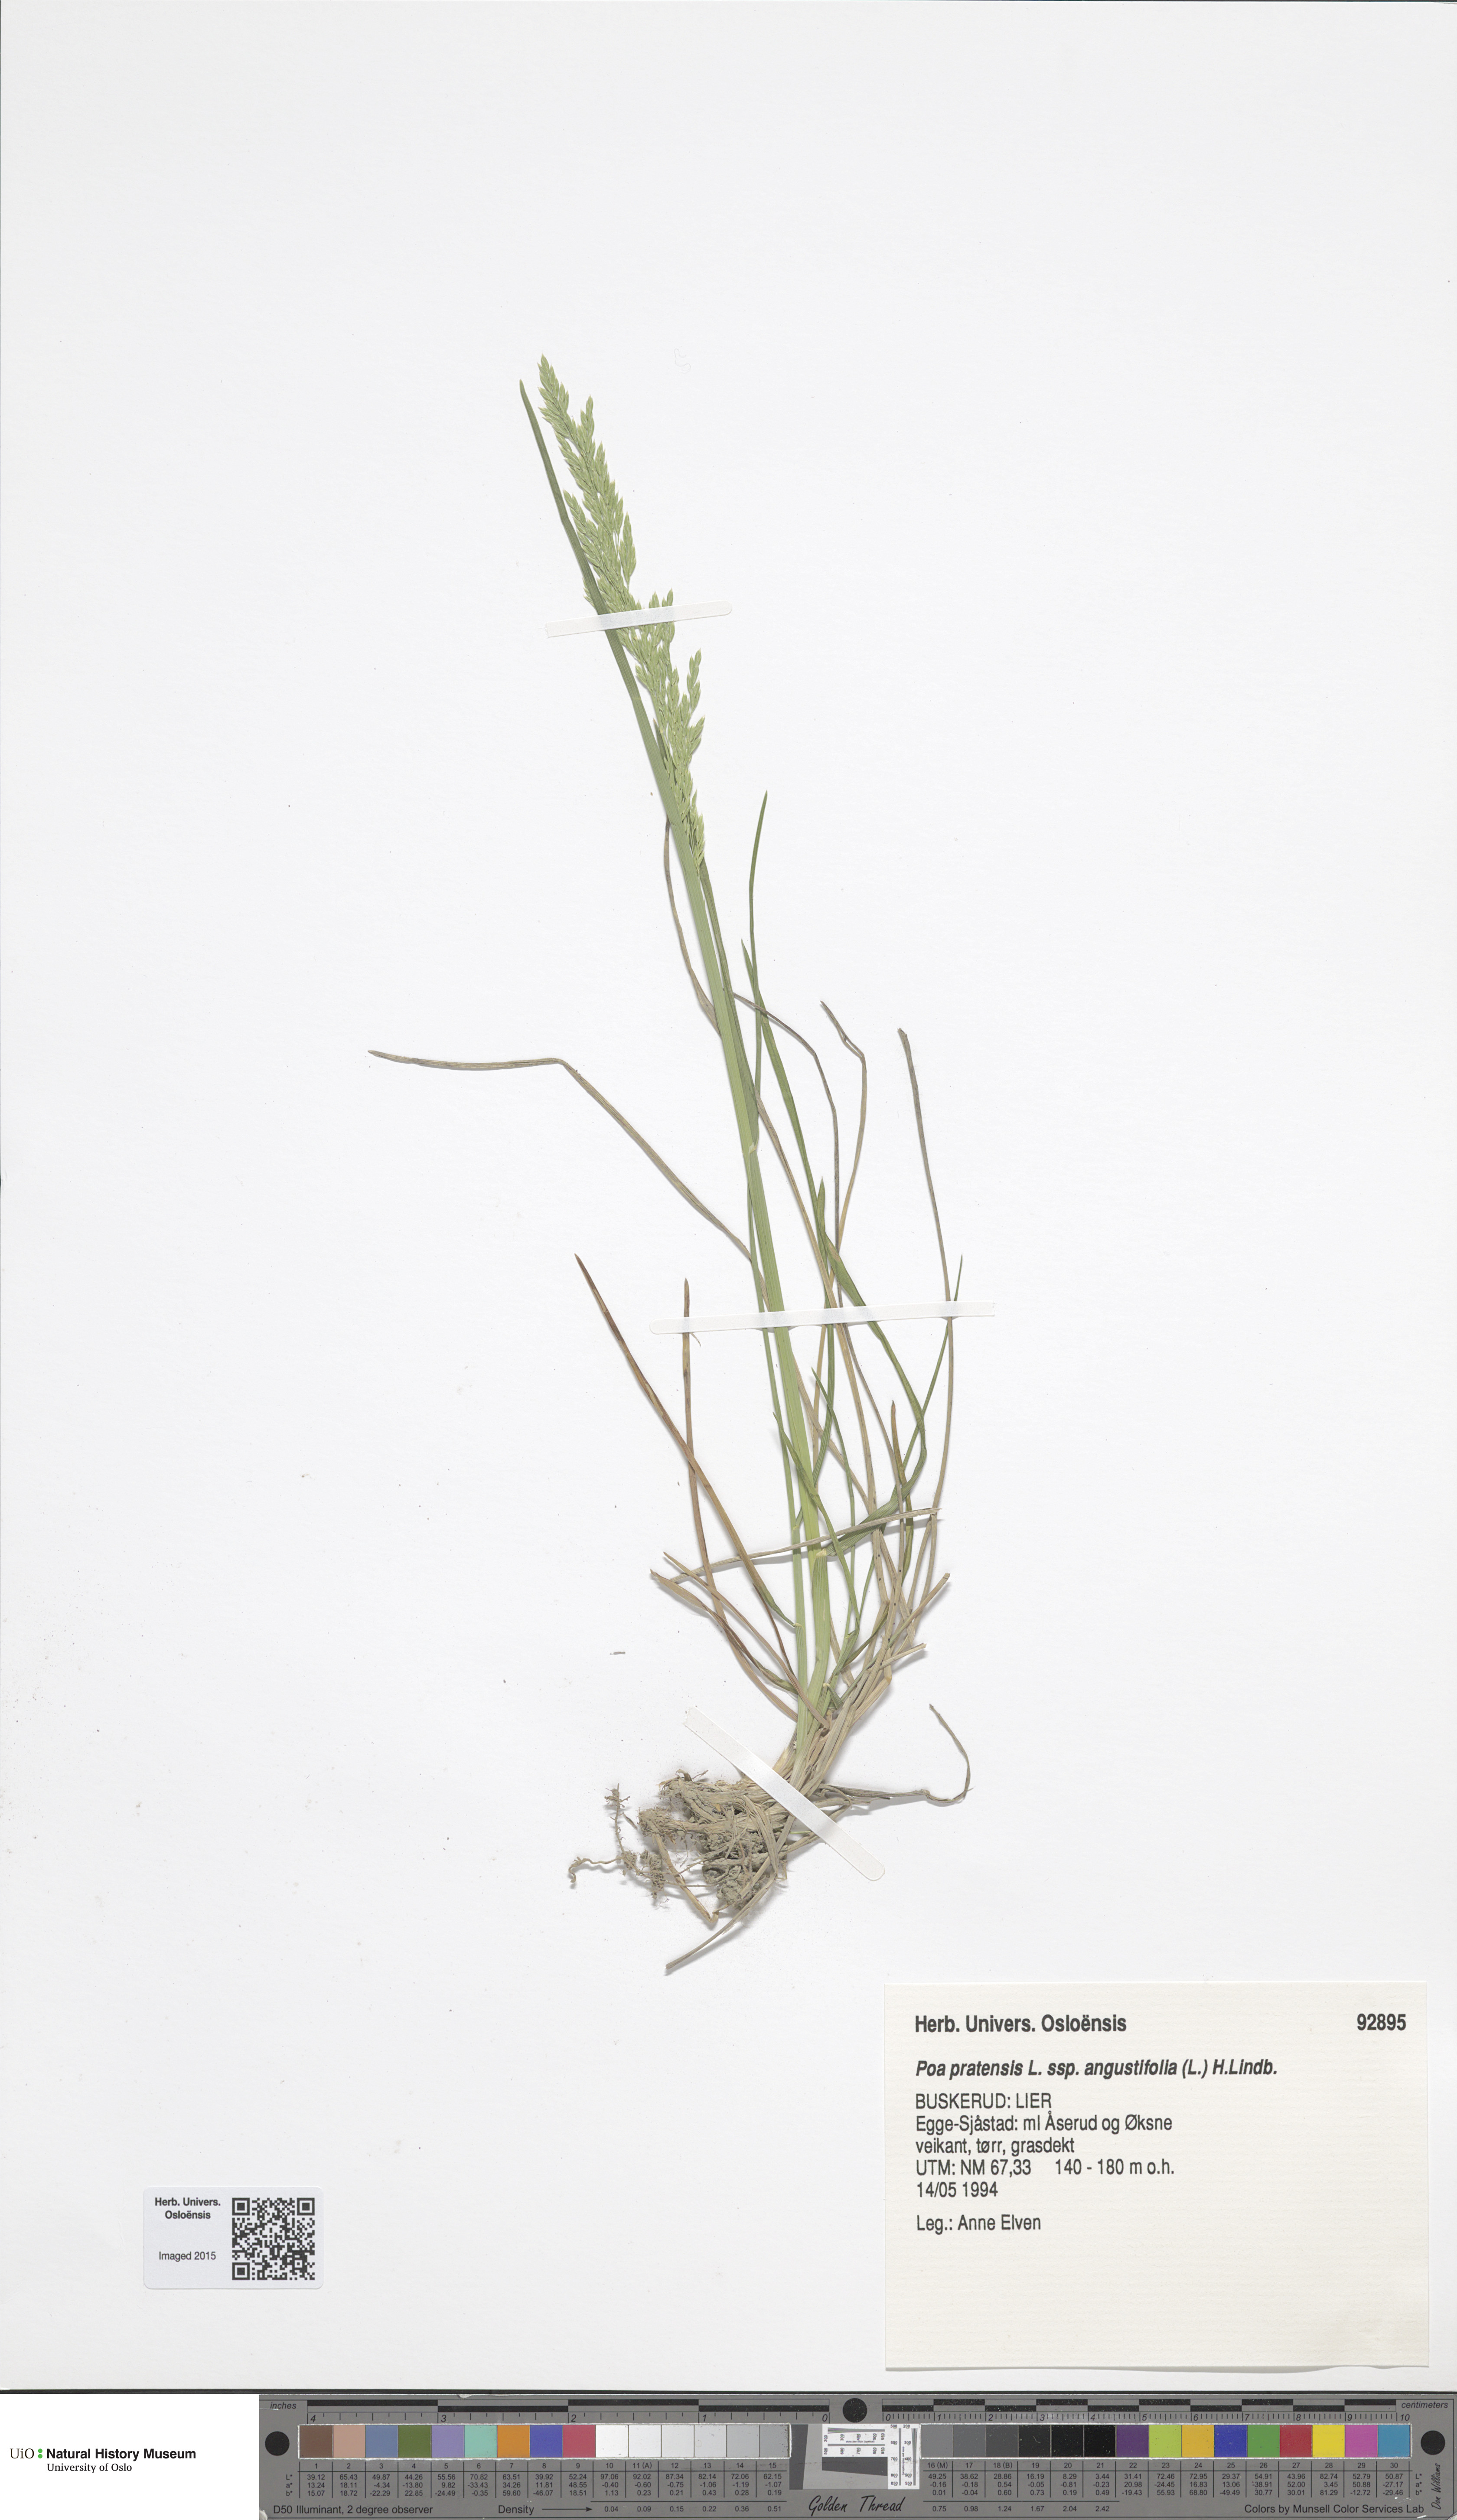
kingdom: Plantae
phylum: Tracheophyta
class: Liliopsida
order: Poales
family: Poaceae
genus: Poa
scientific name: Poa angustifolia
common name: Narrow-leaved meadow-grass
